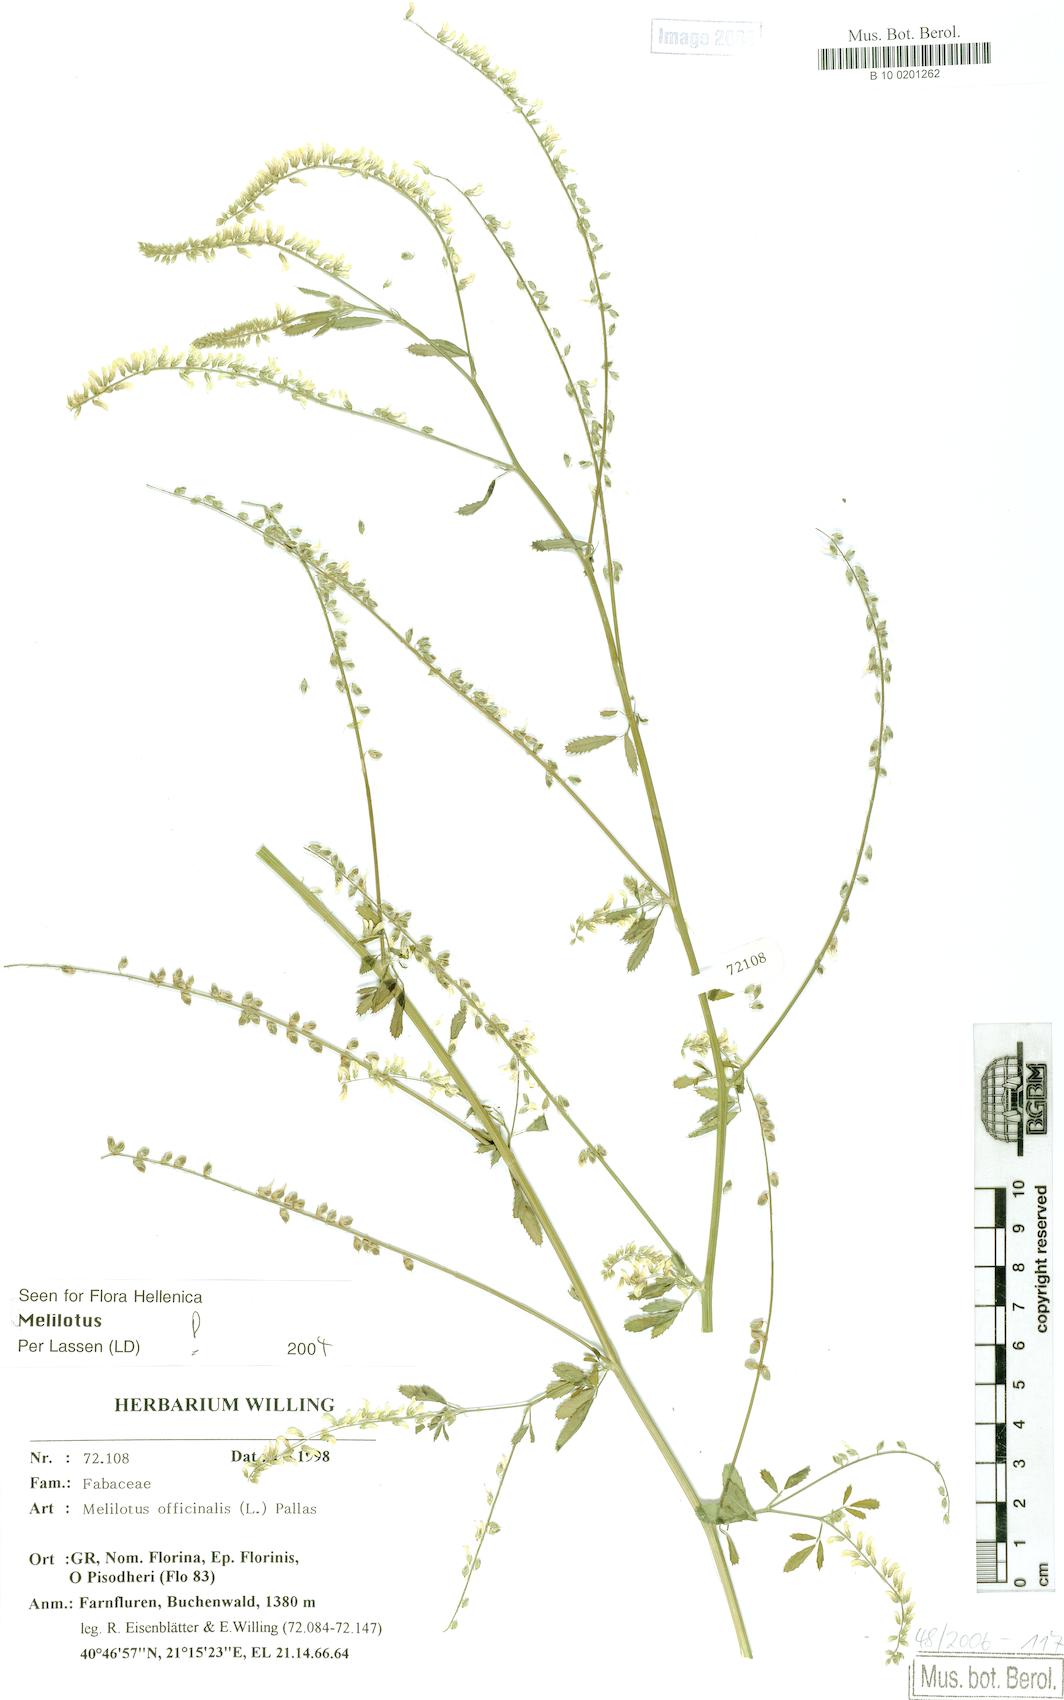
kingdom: Plantae
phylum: Tracheophyta
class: Magnoliopsida
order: Fabales
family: Fabaceae
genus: Melilotus
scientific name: Melilotus officinalis
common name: Sweetclover
